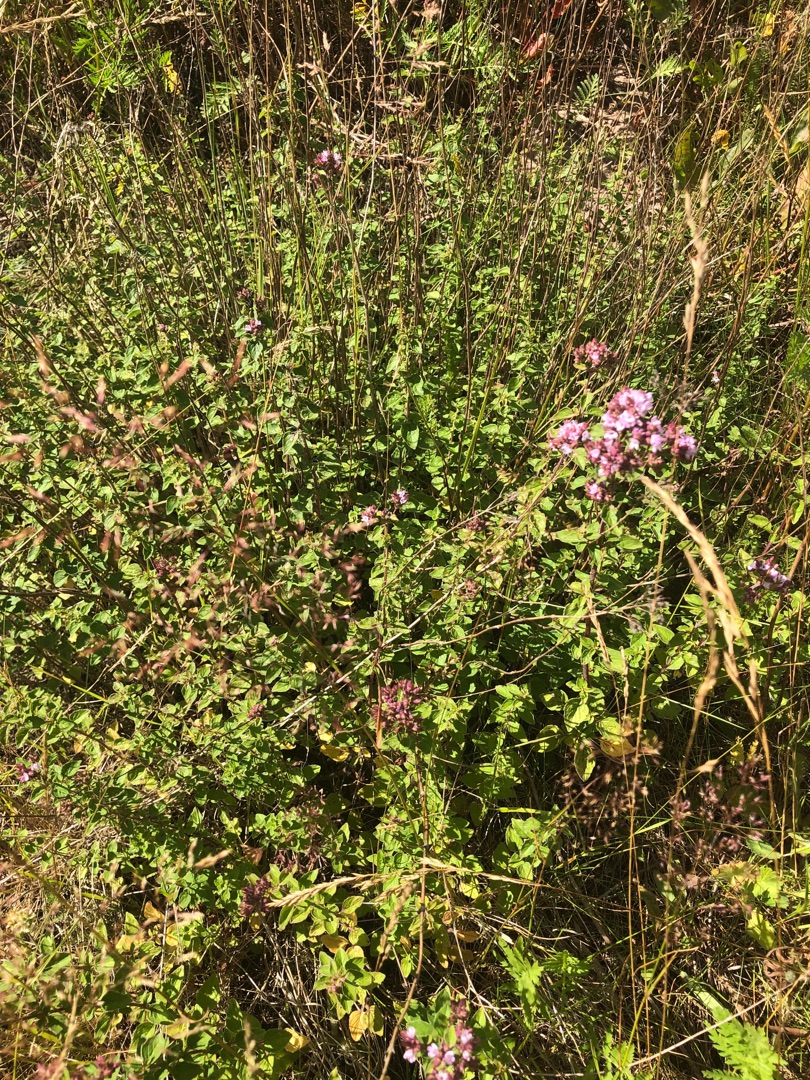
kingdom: Plantae
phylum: Tracheophyta
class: Magnoliopsida
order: Lamiales
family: Lamiaceae
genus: Origanum
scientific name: Origanum vulgare
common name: Merian
